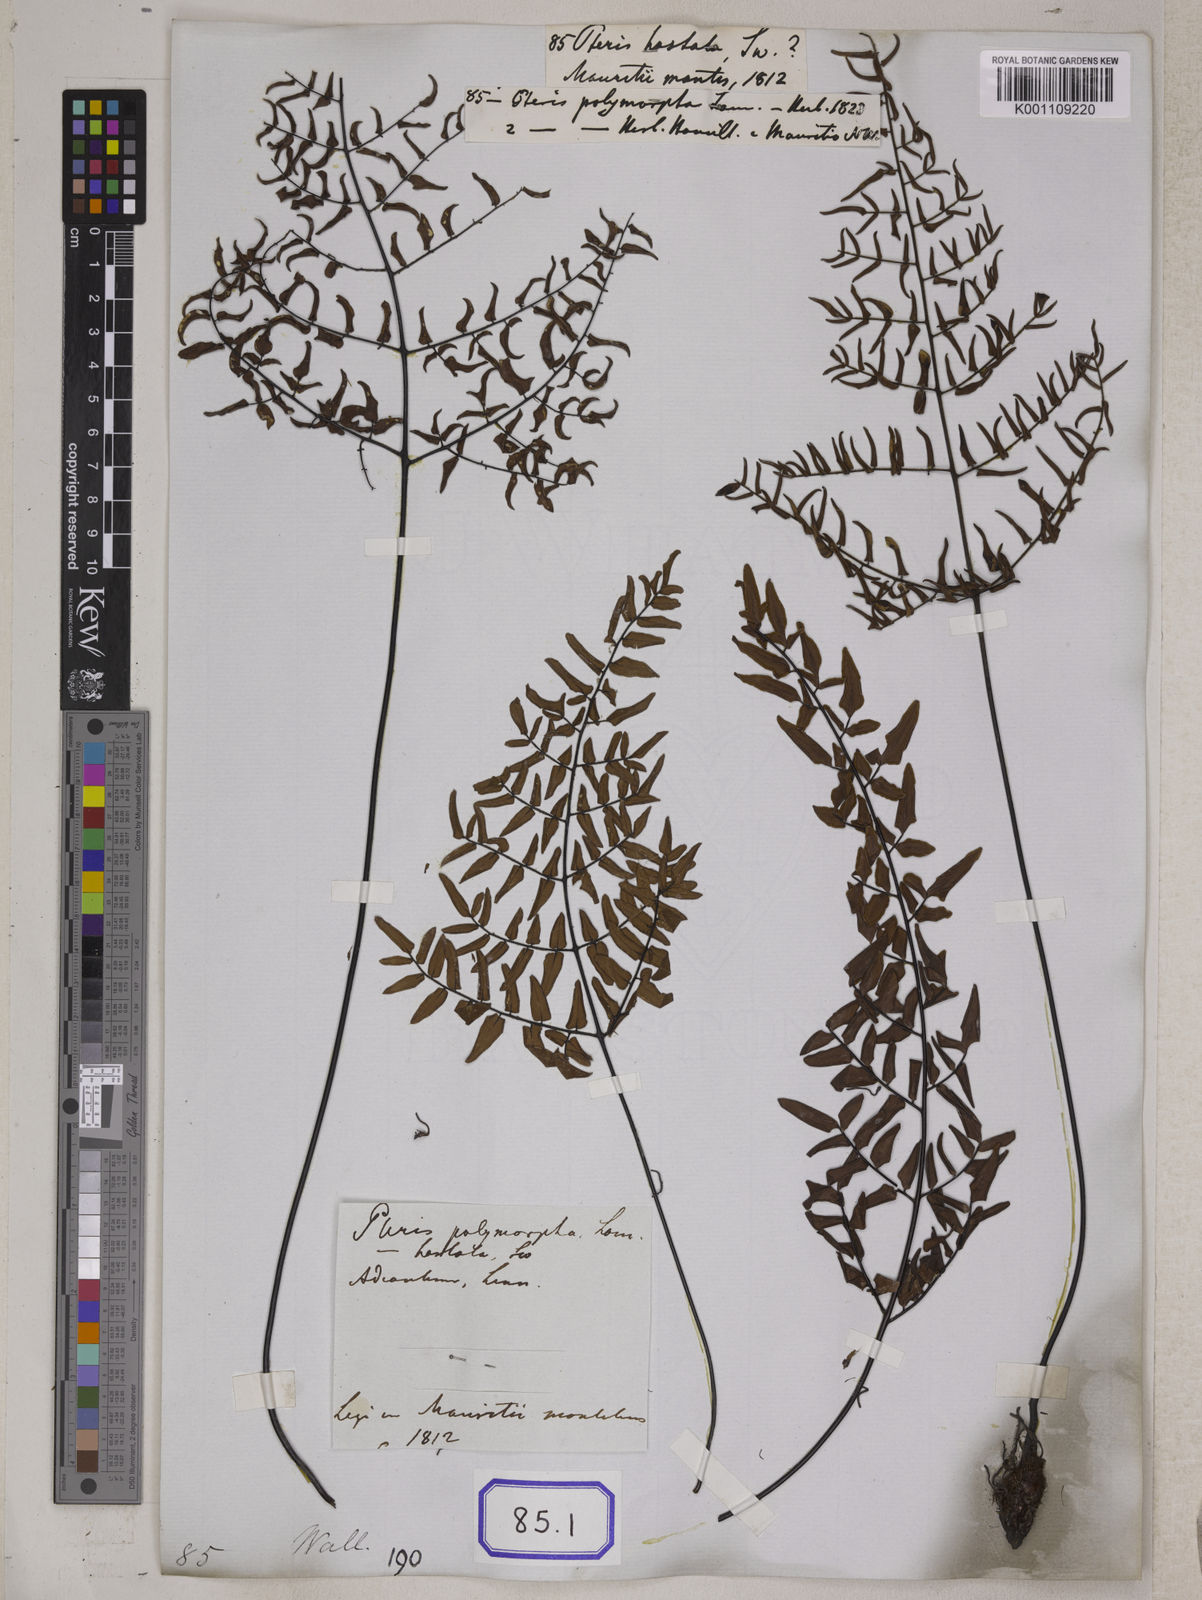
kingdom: Plantae
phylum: Tracheophyta
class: Polypodiopsida
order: Polypodiales
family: Pteridaceae
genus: Cheilanthes
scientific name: Cheilanthes viridis
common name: Green cliffbrake
